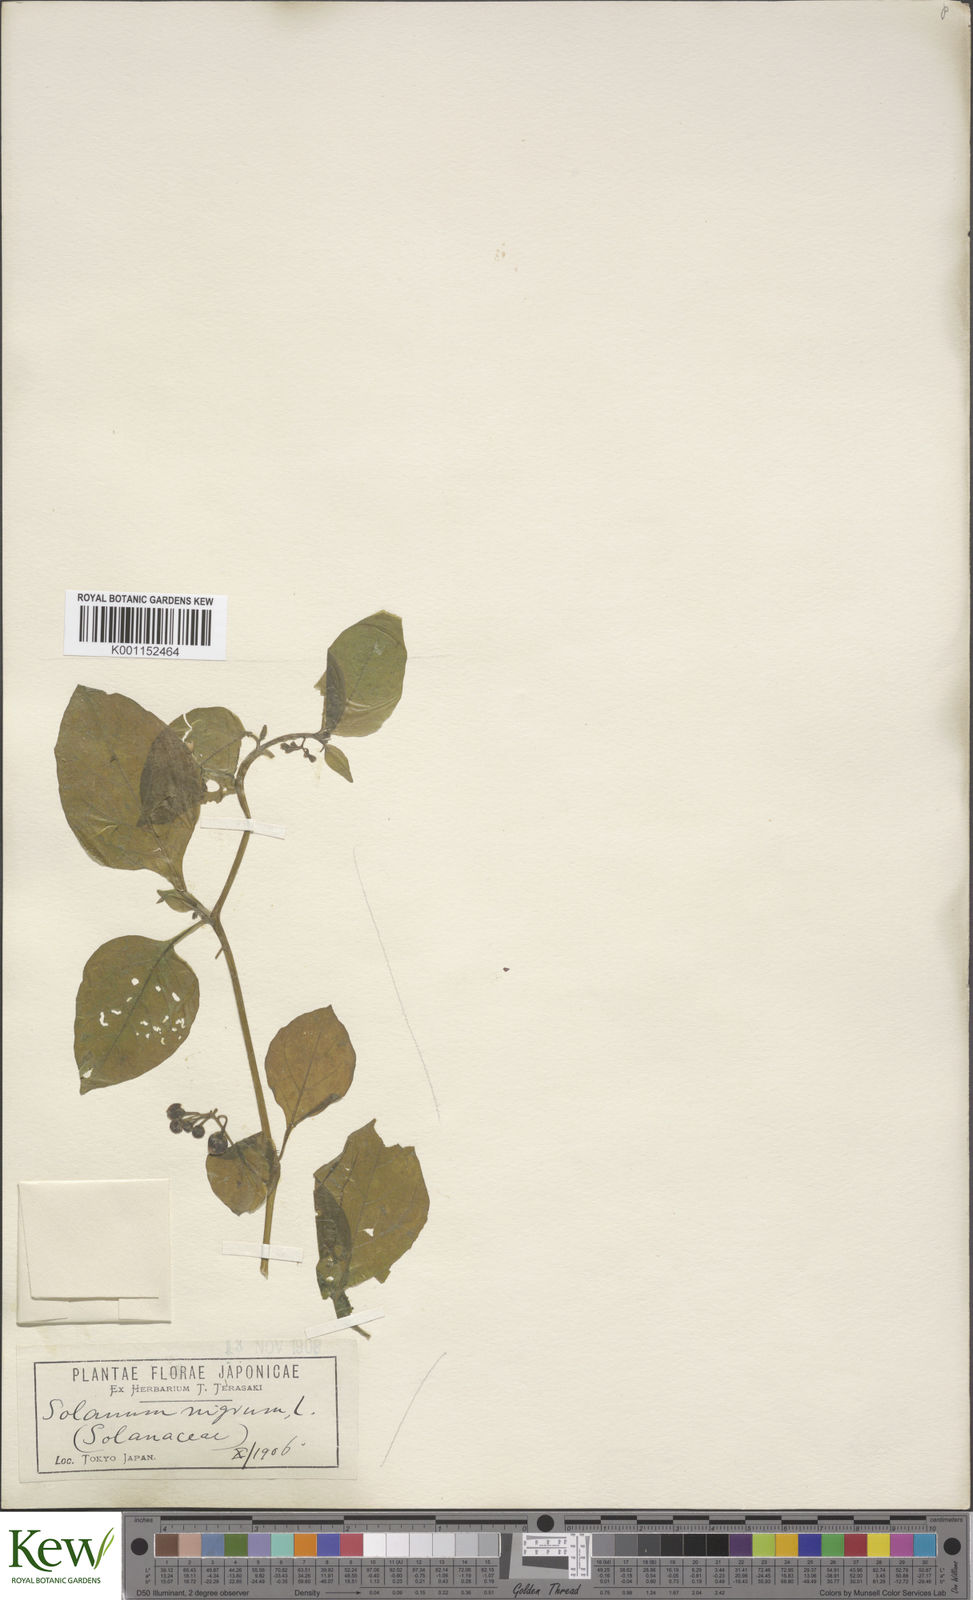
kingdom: Plantae
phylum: Tracheophyta
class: Magnoliopsida
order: Solanales
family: Solanaceae
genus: Solanum
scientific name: Solanum
